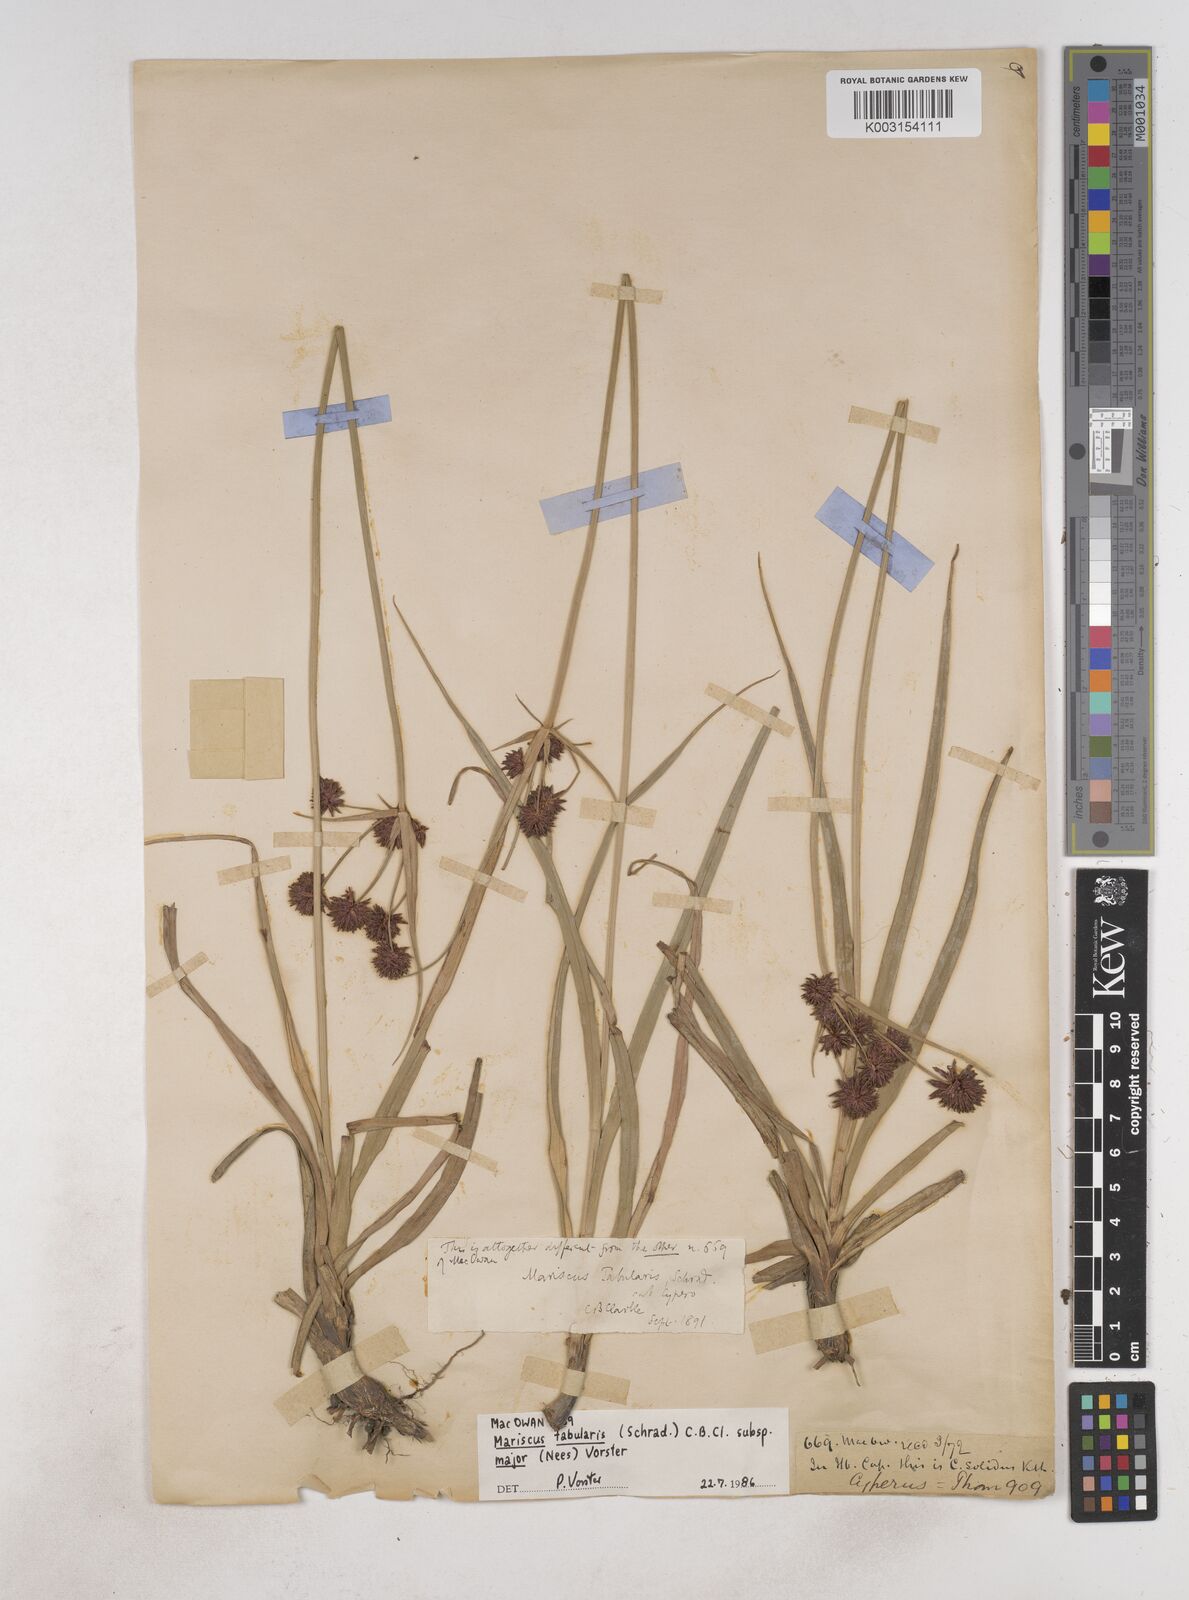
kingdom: Plantae
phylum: Tracheophyta
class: Liliopsida
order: Poales
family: Cyperaceae
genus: Cyperus
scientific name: Cyperus tabularis
